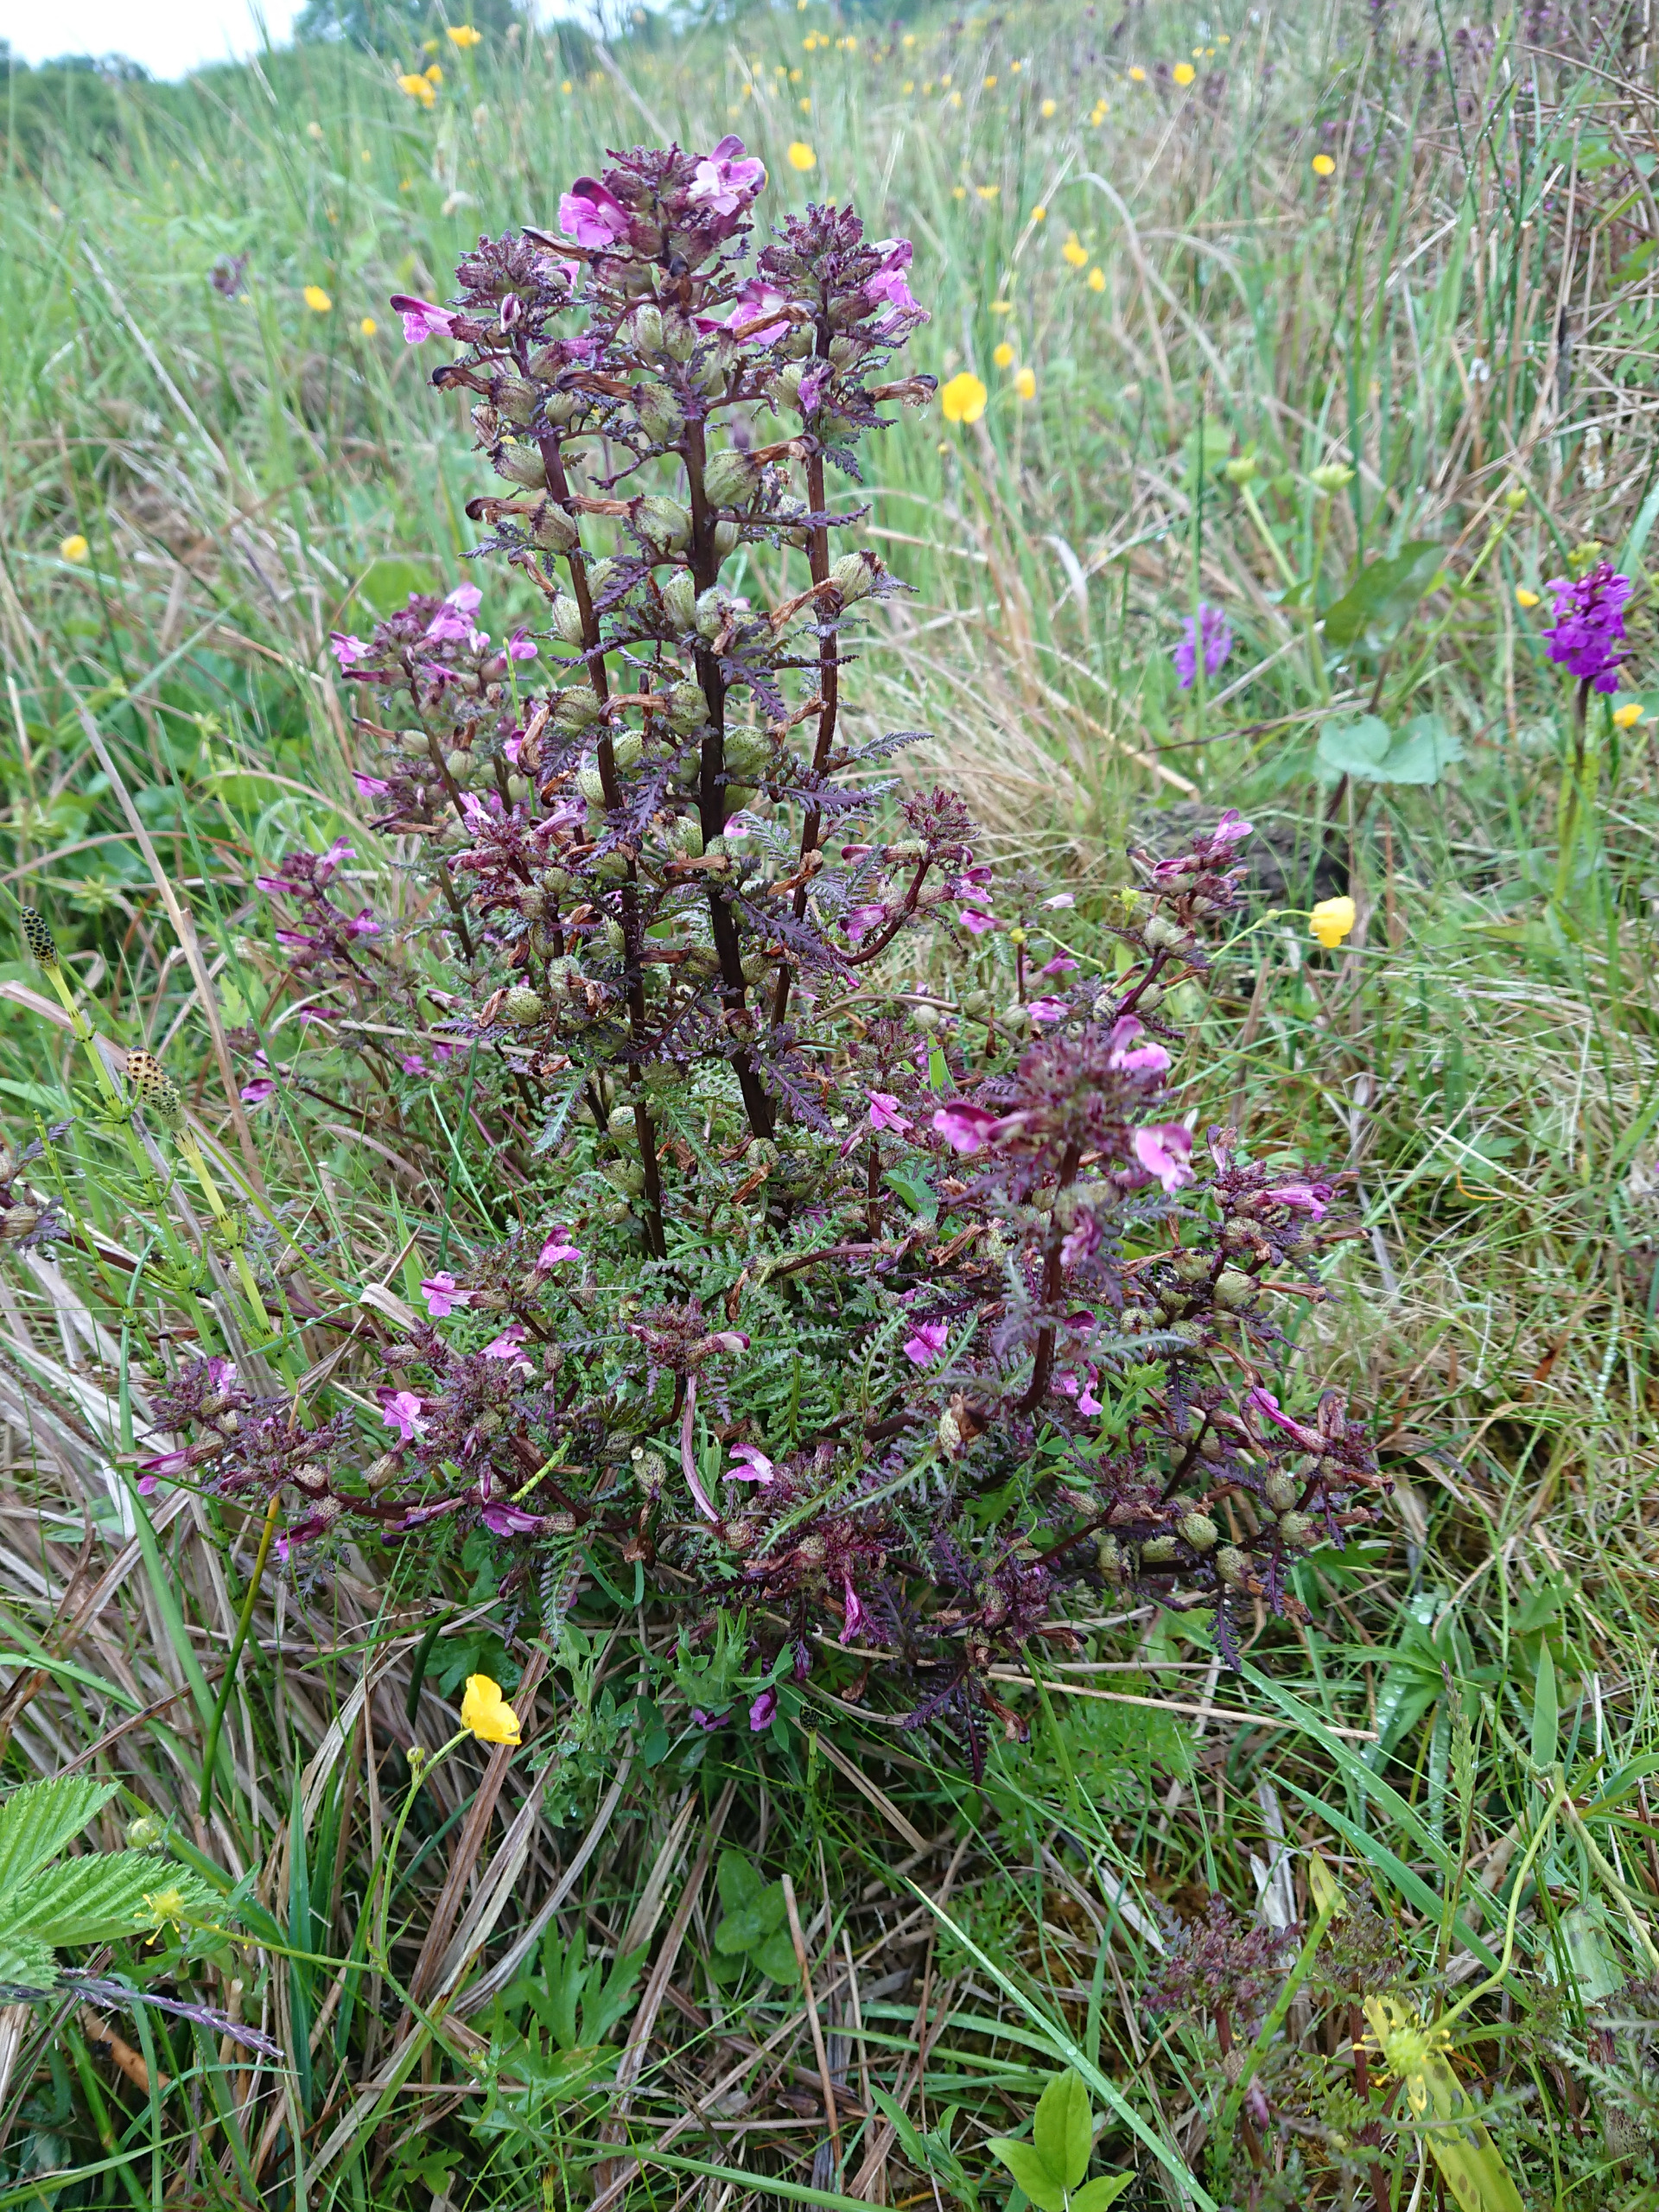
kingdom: Plantae
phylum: Tracheophyta
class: Magnoliopsida
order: Lamiales
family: Orobanchaceae
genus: Pedicularis
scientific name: Pedicularis palustris
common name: Eng-troldurt
